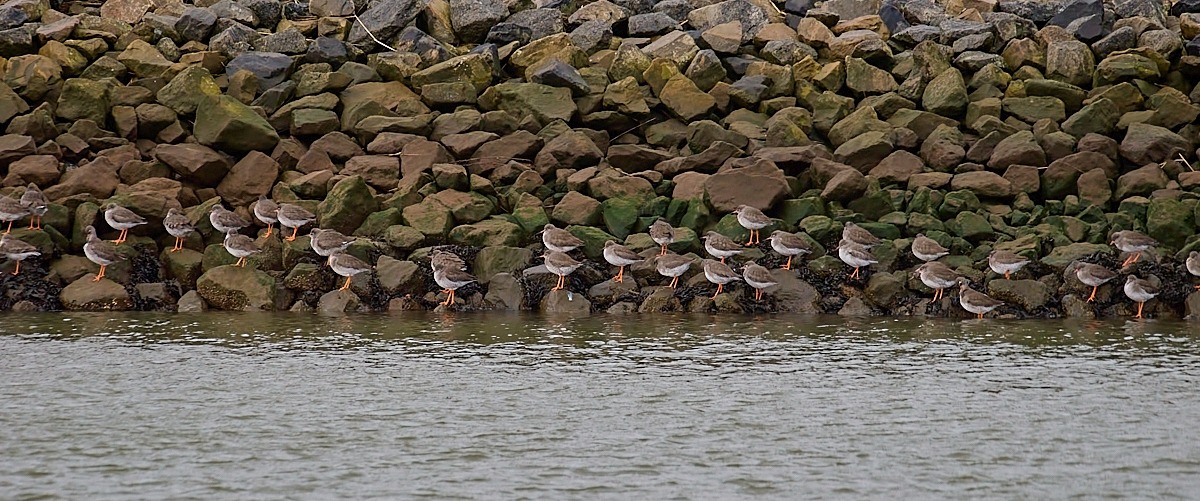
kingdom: Animalia
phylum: Chordata
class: Aves
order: Charadriiformes
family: Scolopacidae
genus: Tringa
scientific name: Tringa totanus
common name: Rødben
